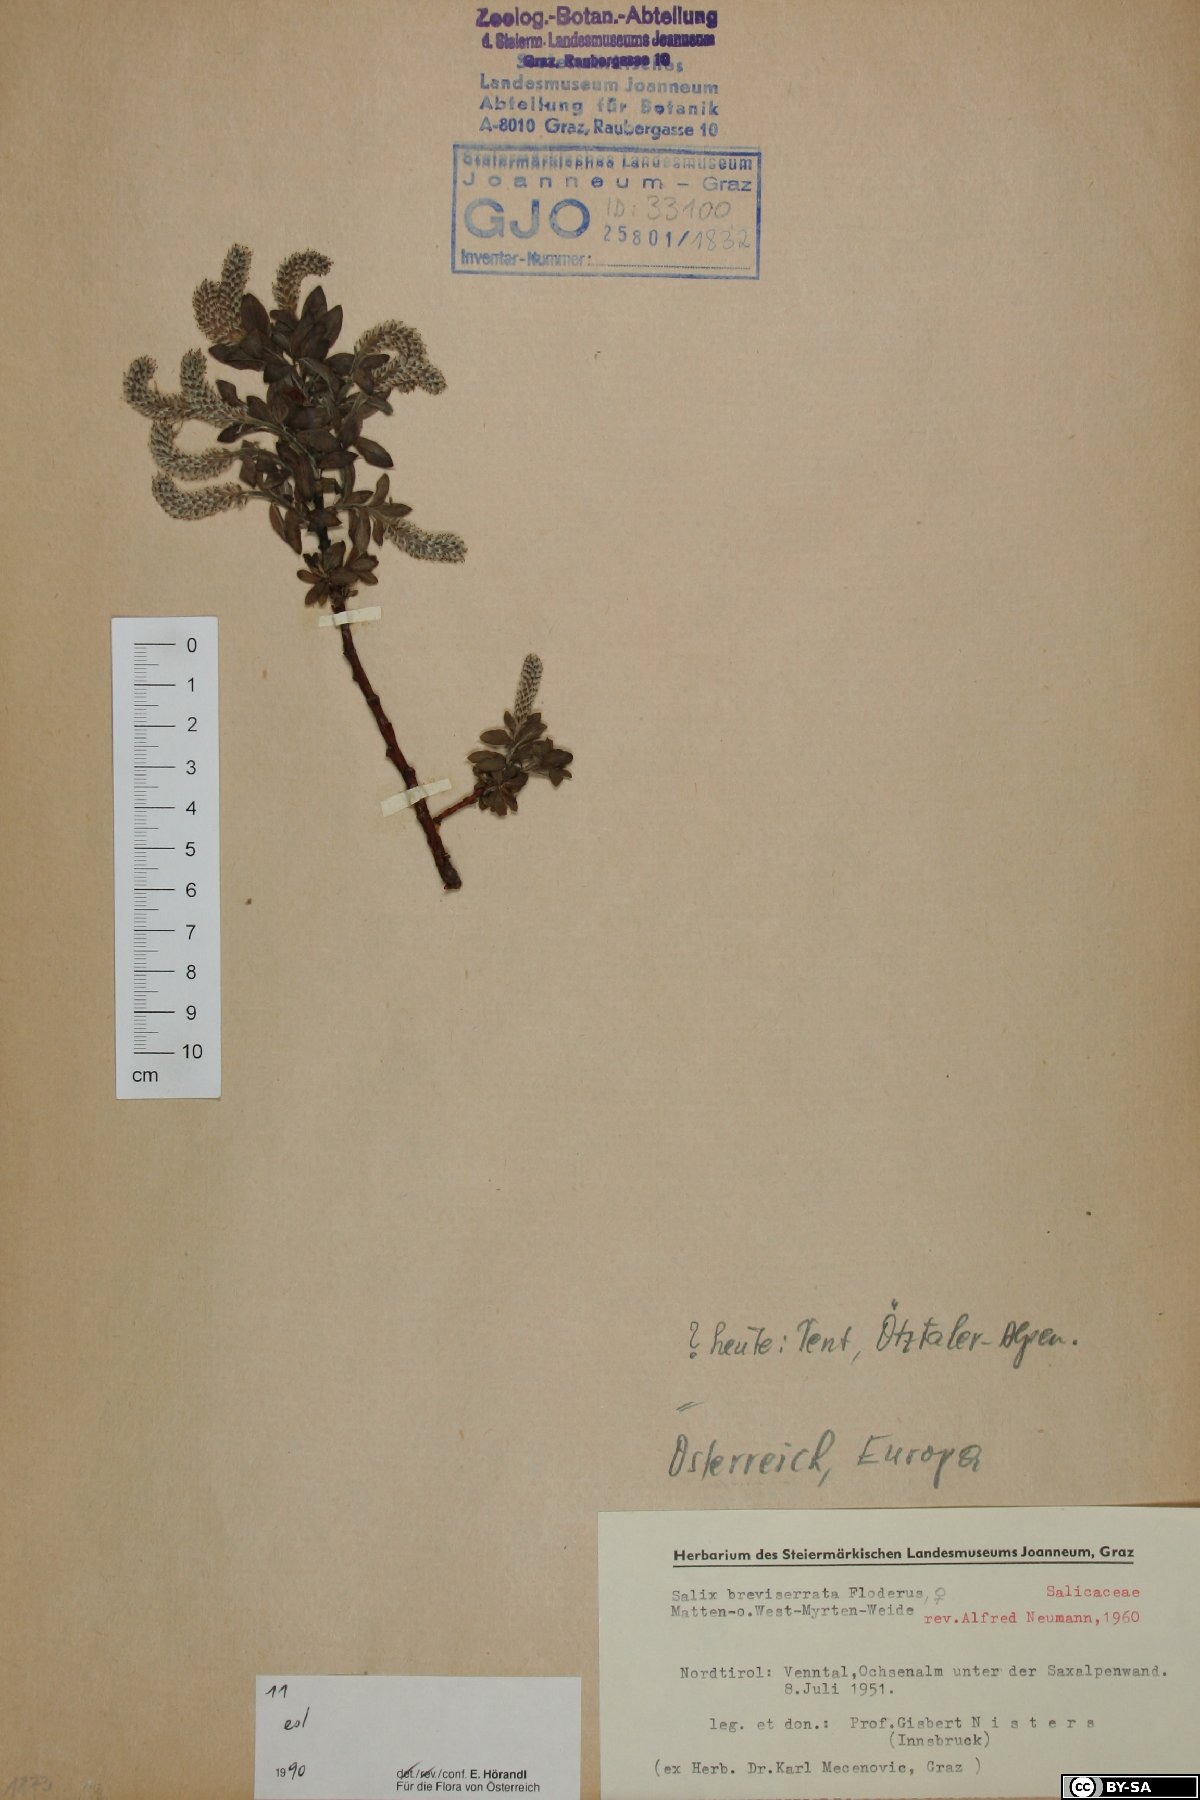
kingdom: Plantae
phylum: Tracheophyta
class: Magnoliopsida
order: Malpighiales
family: Salicaceae
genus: Salix
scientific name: Salix breviserrata
